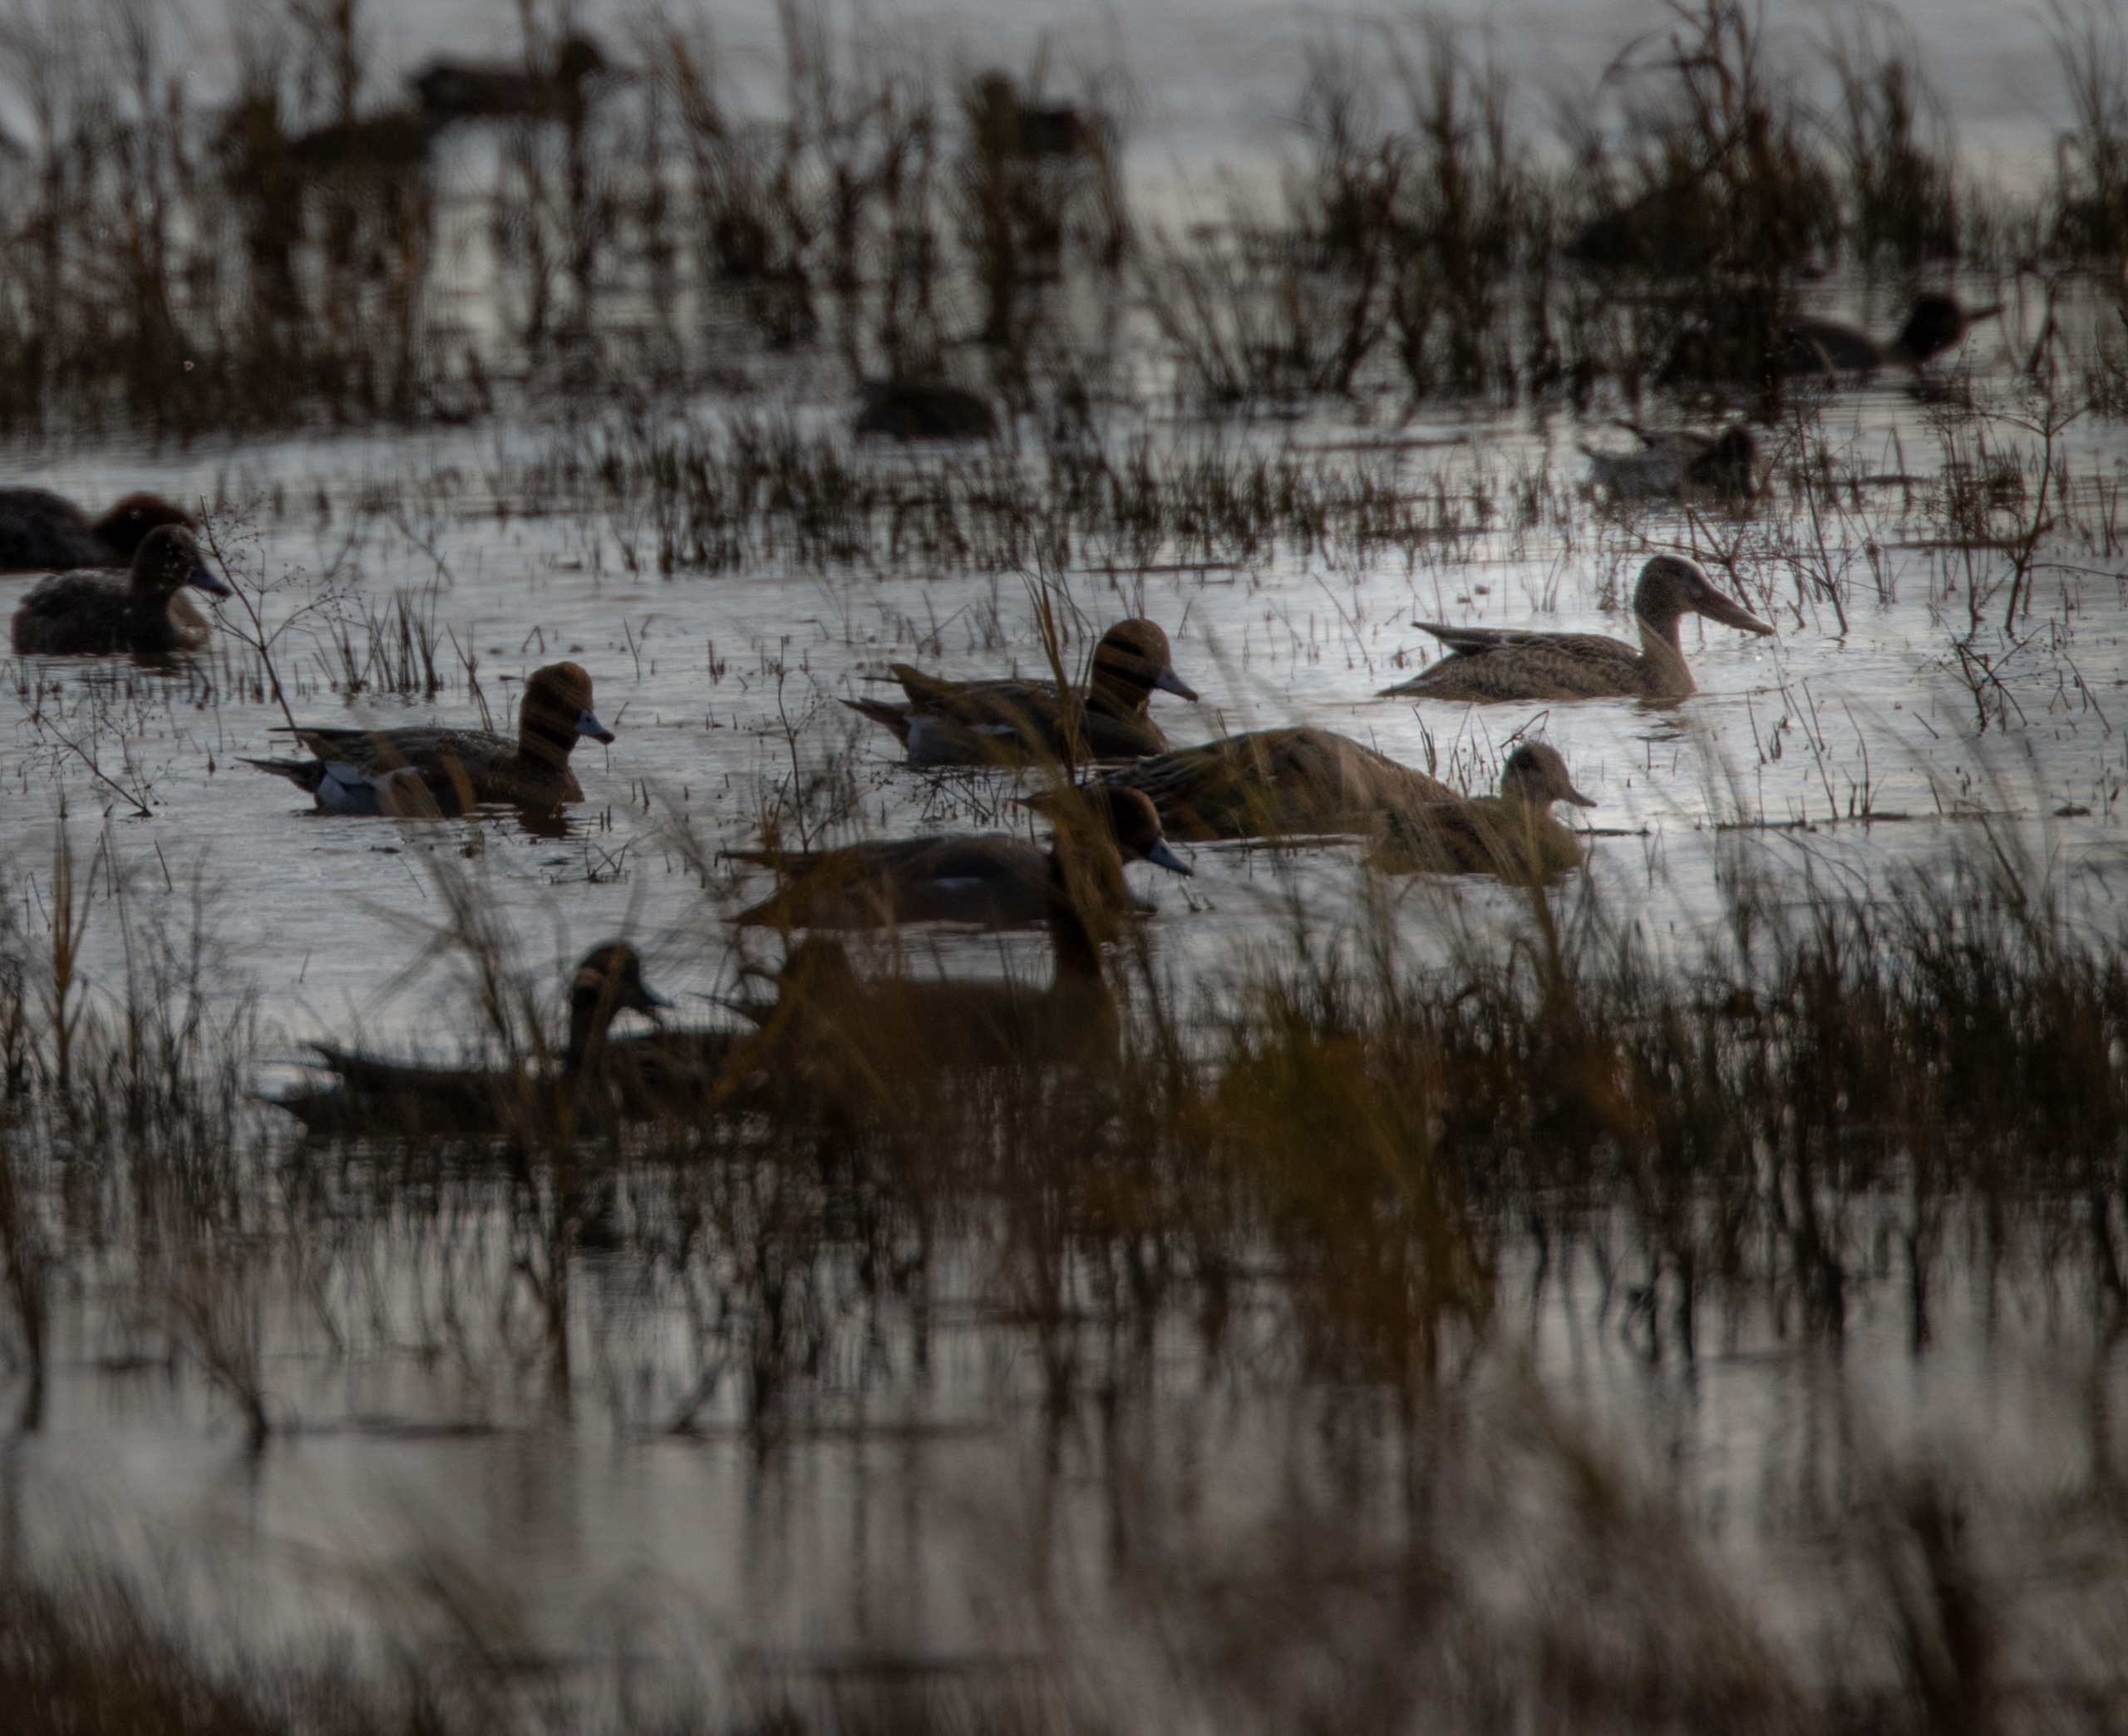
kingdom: Animalia
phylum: Chordata
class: Aves
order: Anseriformes
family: Anatidae
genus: Spatula
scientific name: Spatula clypeata
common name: Skeand
